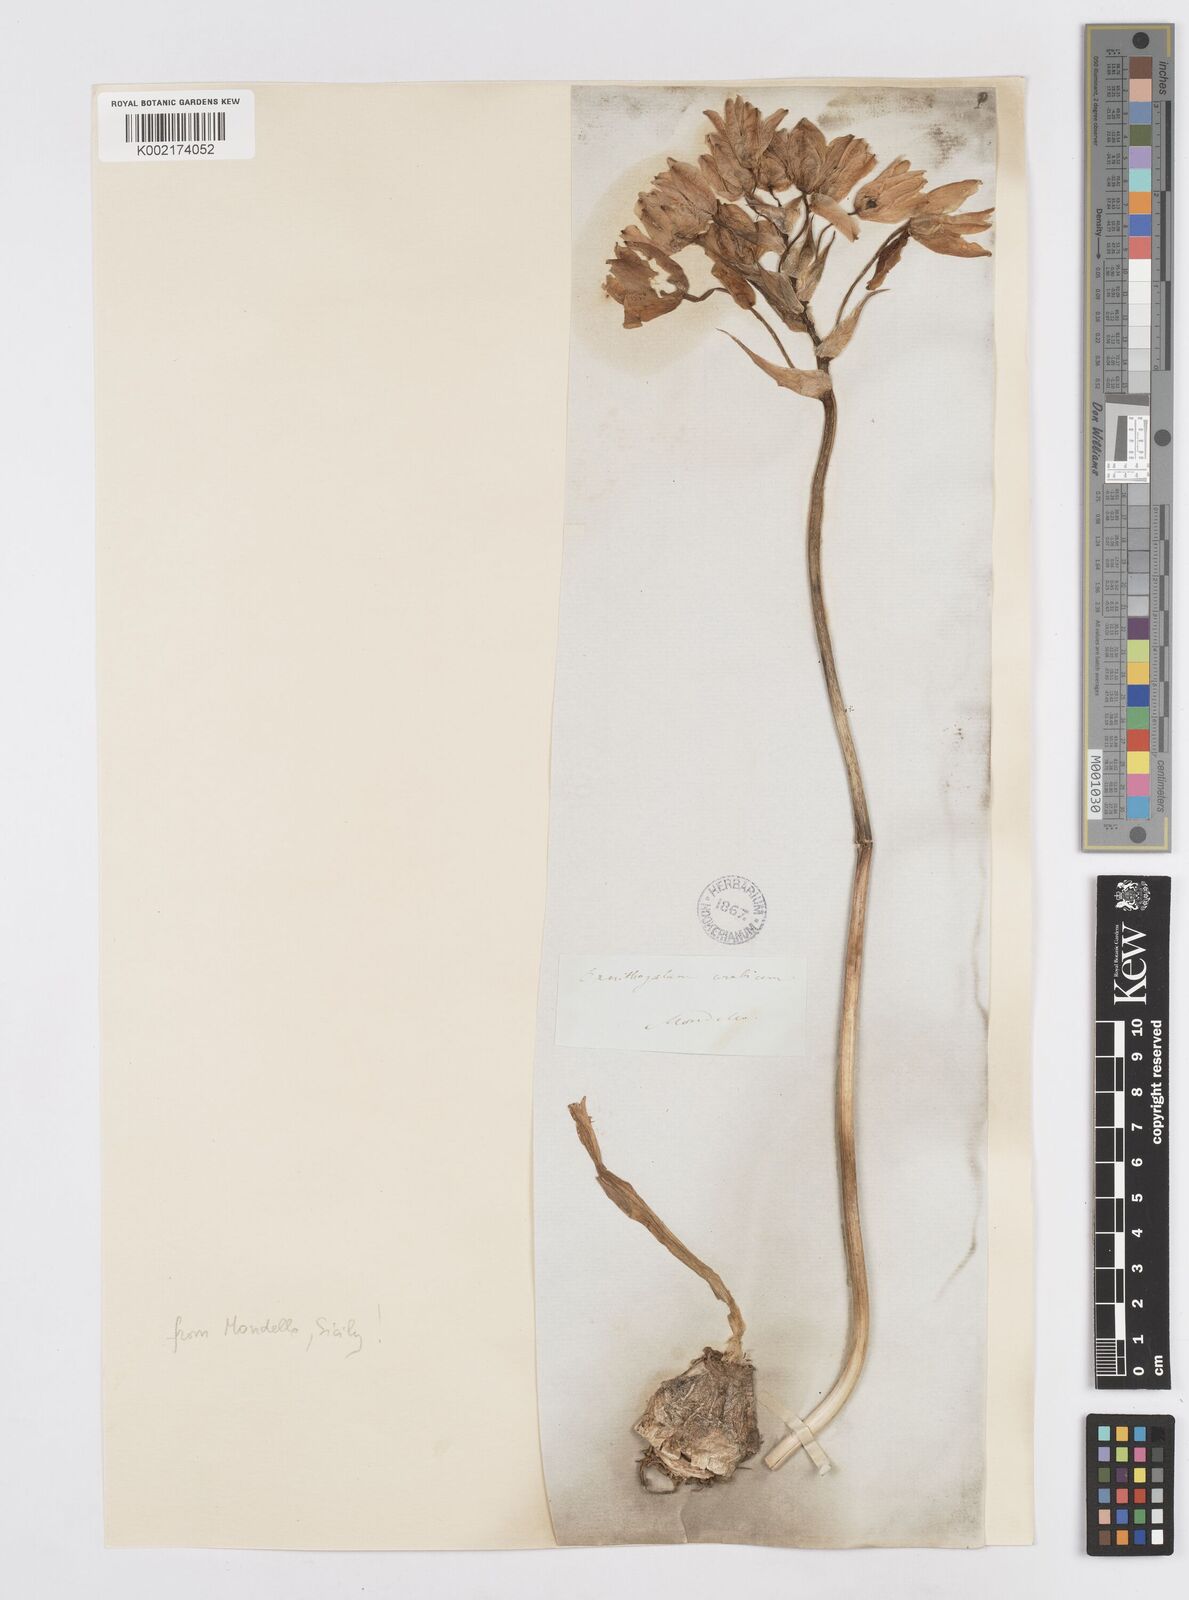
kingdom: Plantae
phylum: Tracheophyta
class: Liliopsida
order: Asparagales
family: Asparagaceae
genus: Ornithogalum
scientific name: Ornithogalum arabicum
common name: Arabian starflower
